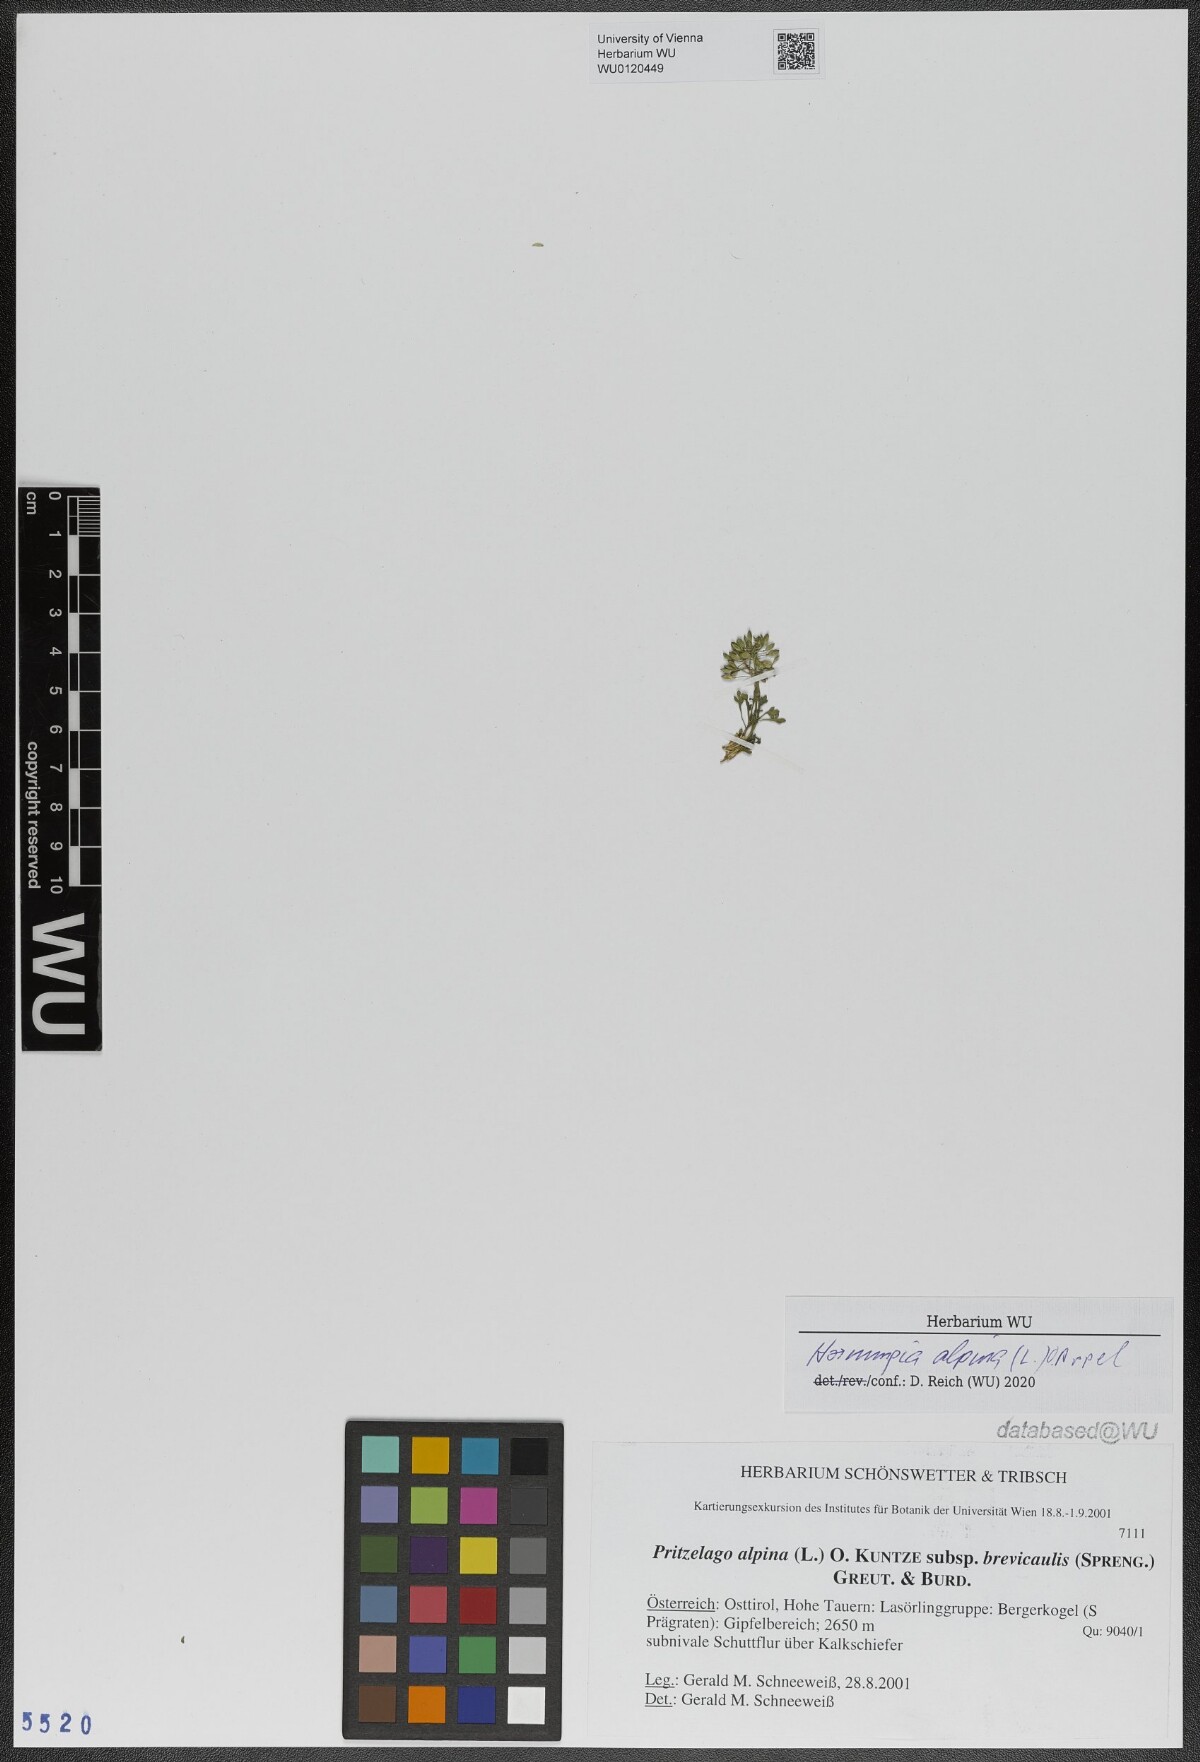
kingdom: Plantae
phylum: Tracheophyta
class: Magnoliopsida
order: Brassicales
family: Brassicaceae
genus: Hornungia
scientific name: Hornungia alpina
